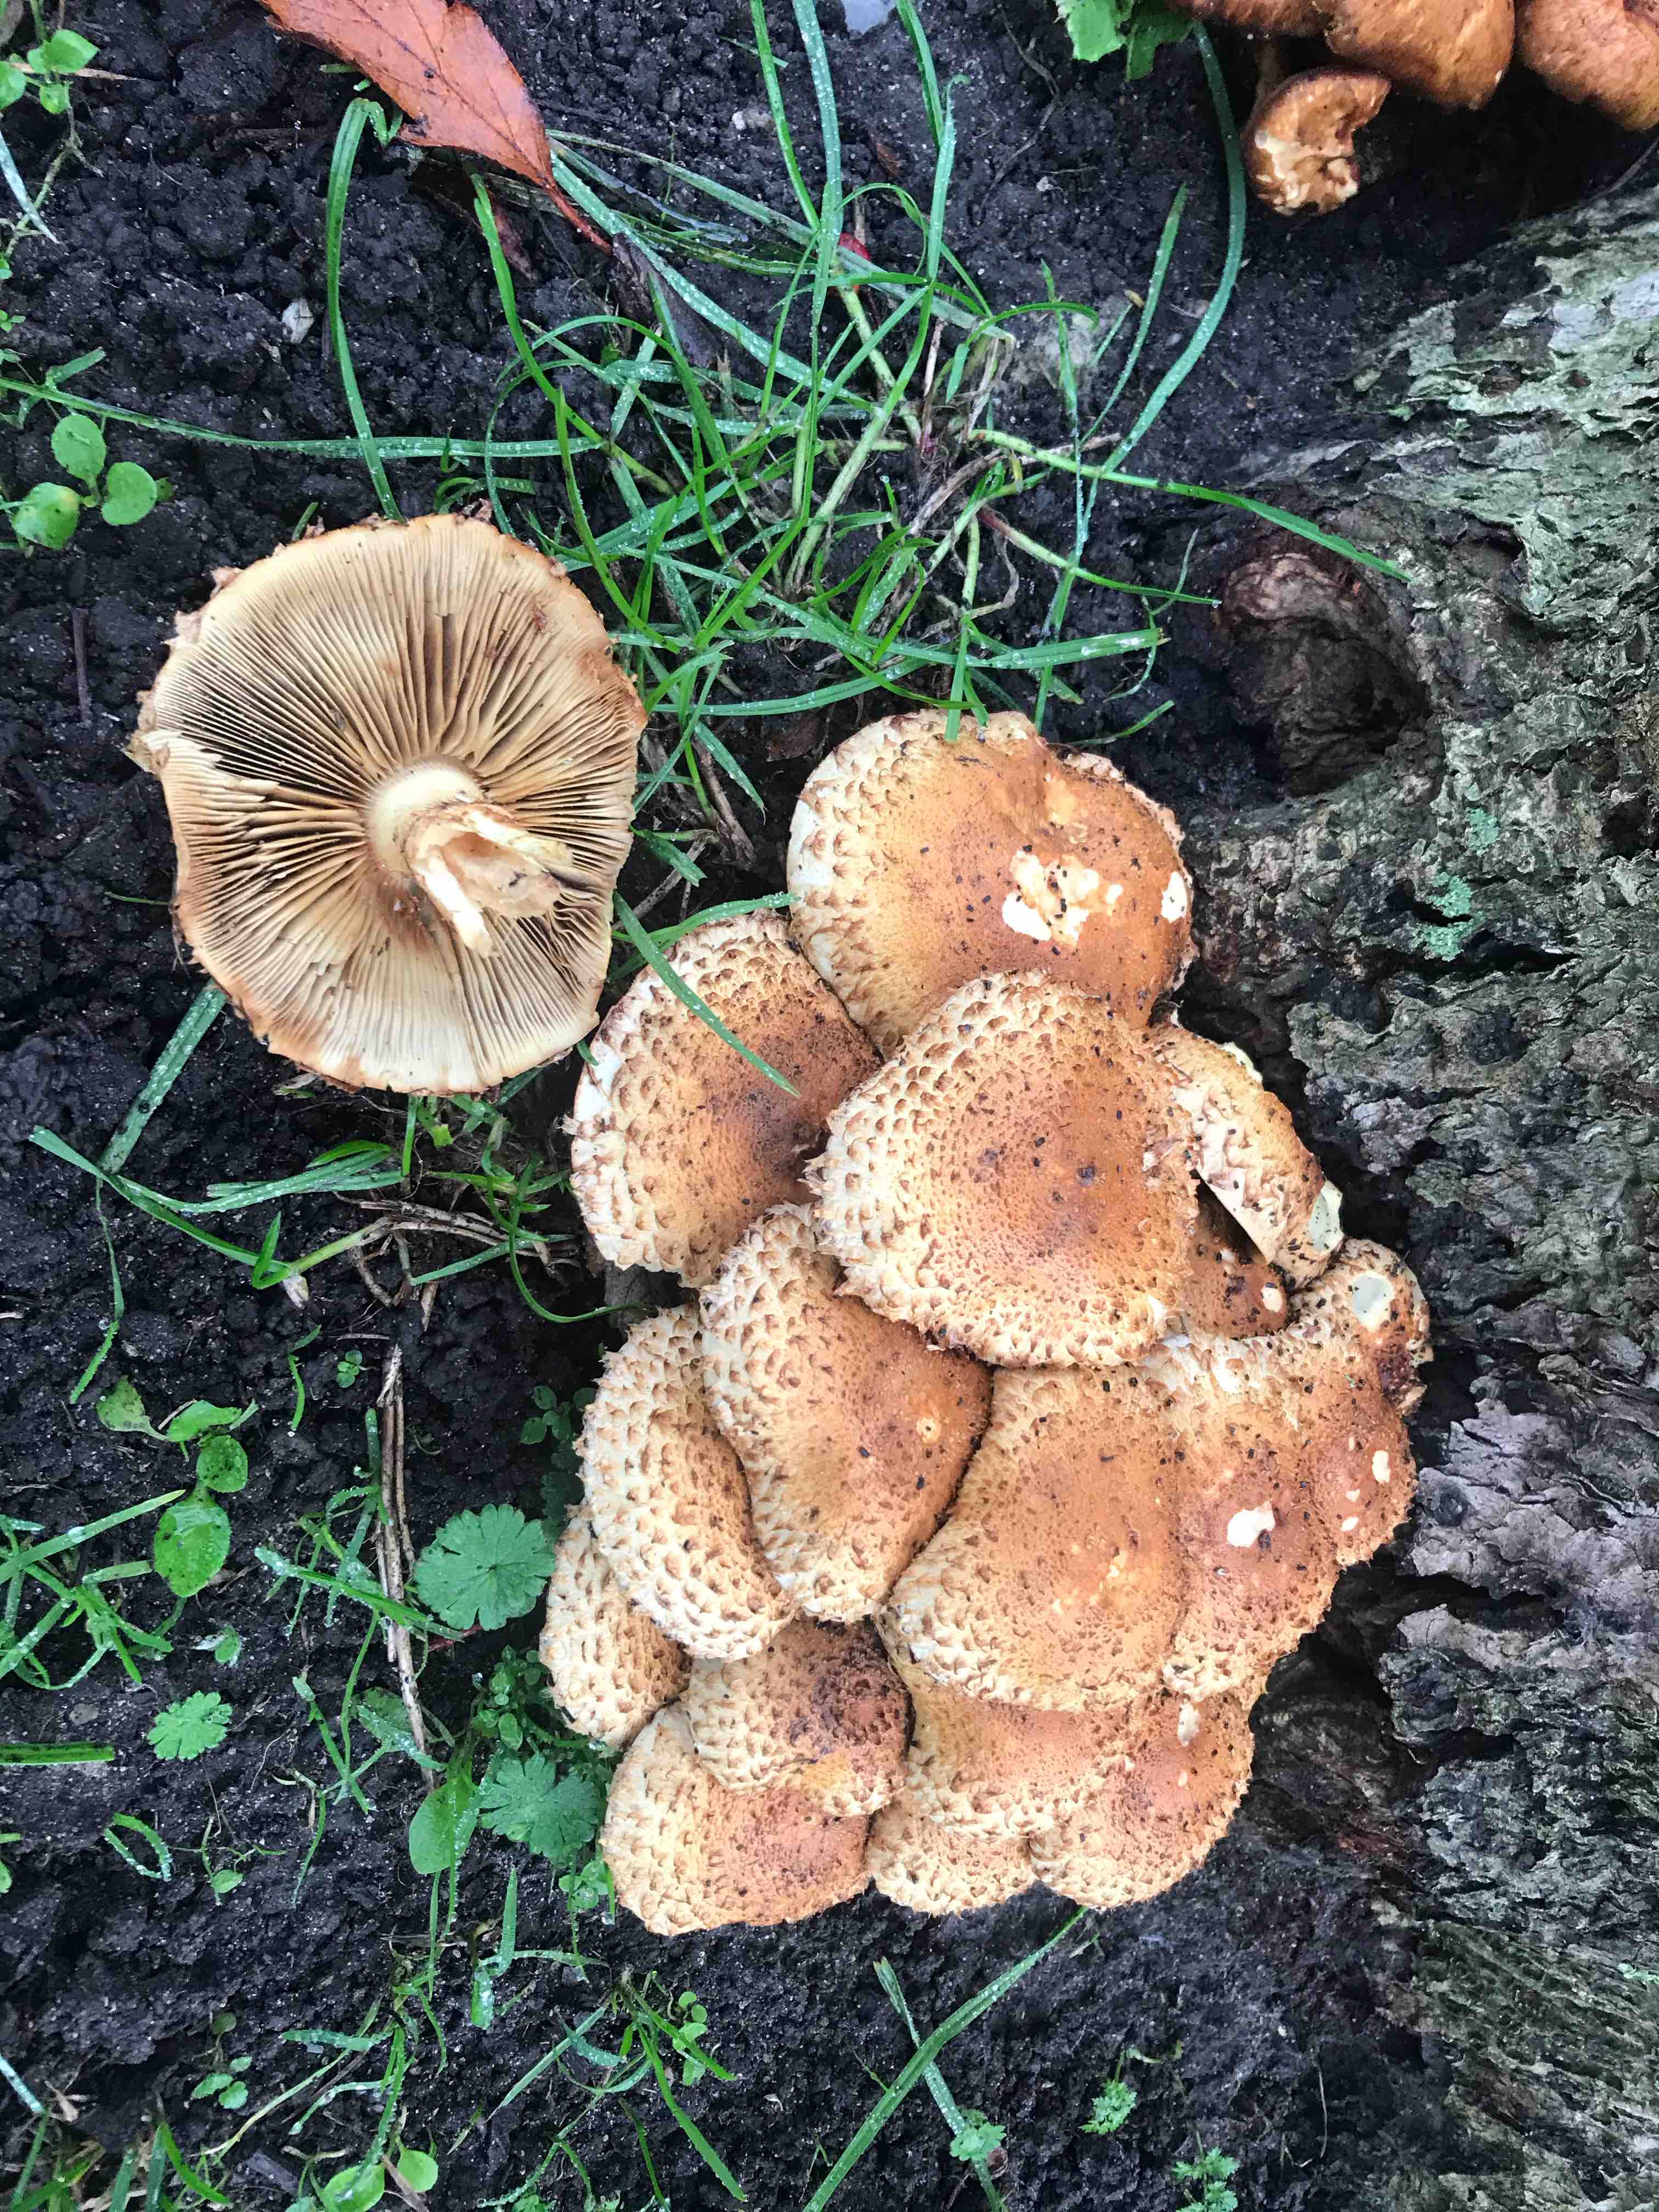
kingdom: Fungi
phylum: Basidiomycota
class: Agaricomycetes
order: Agaricales
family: Strophariaceae
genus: Pholiota
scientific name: Pholiota squarrosa
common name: krumskællet skælhat
